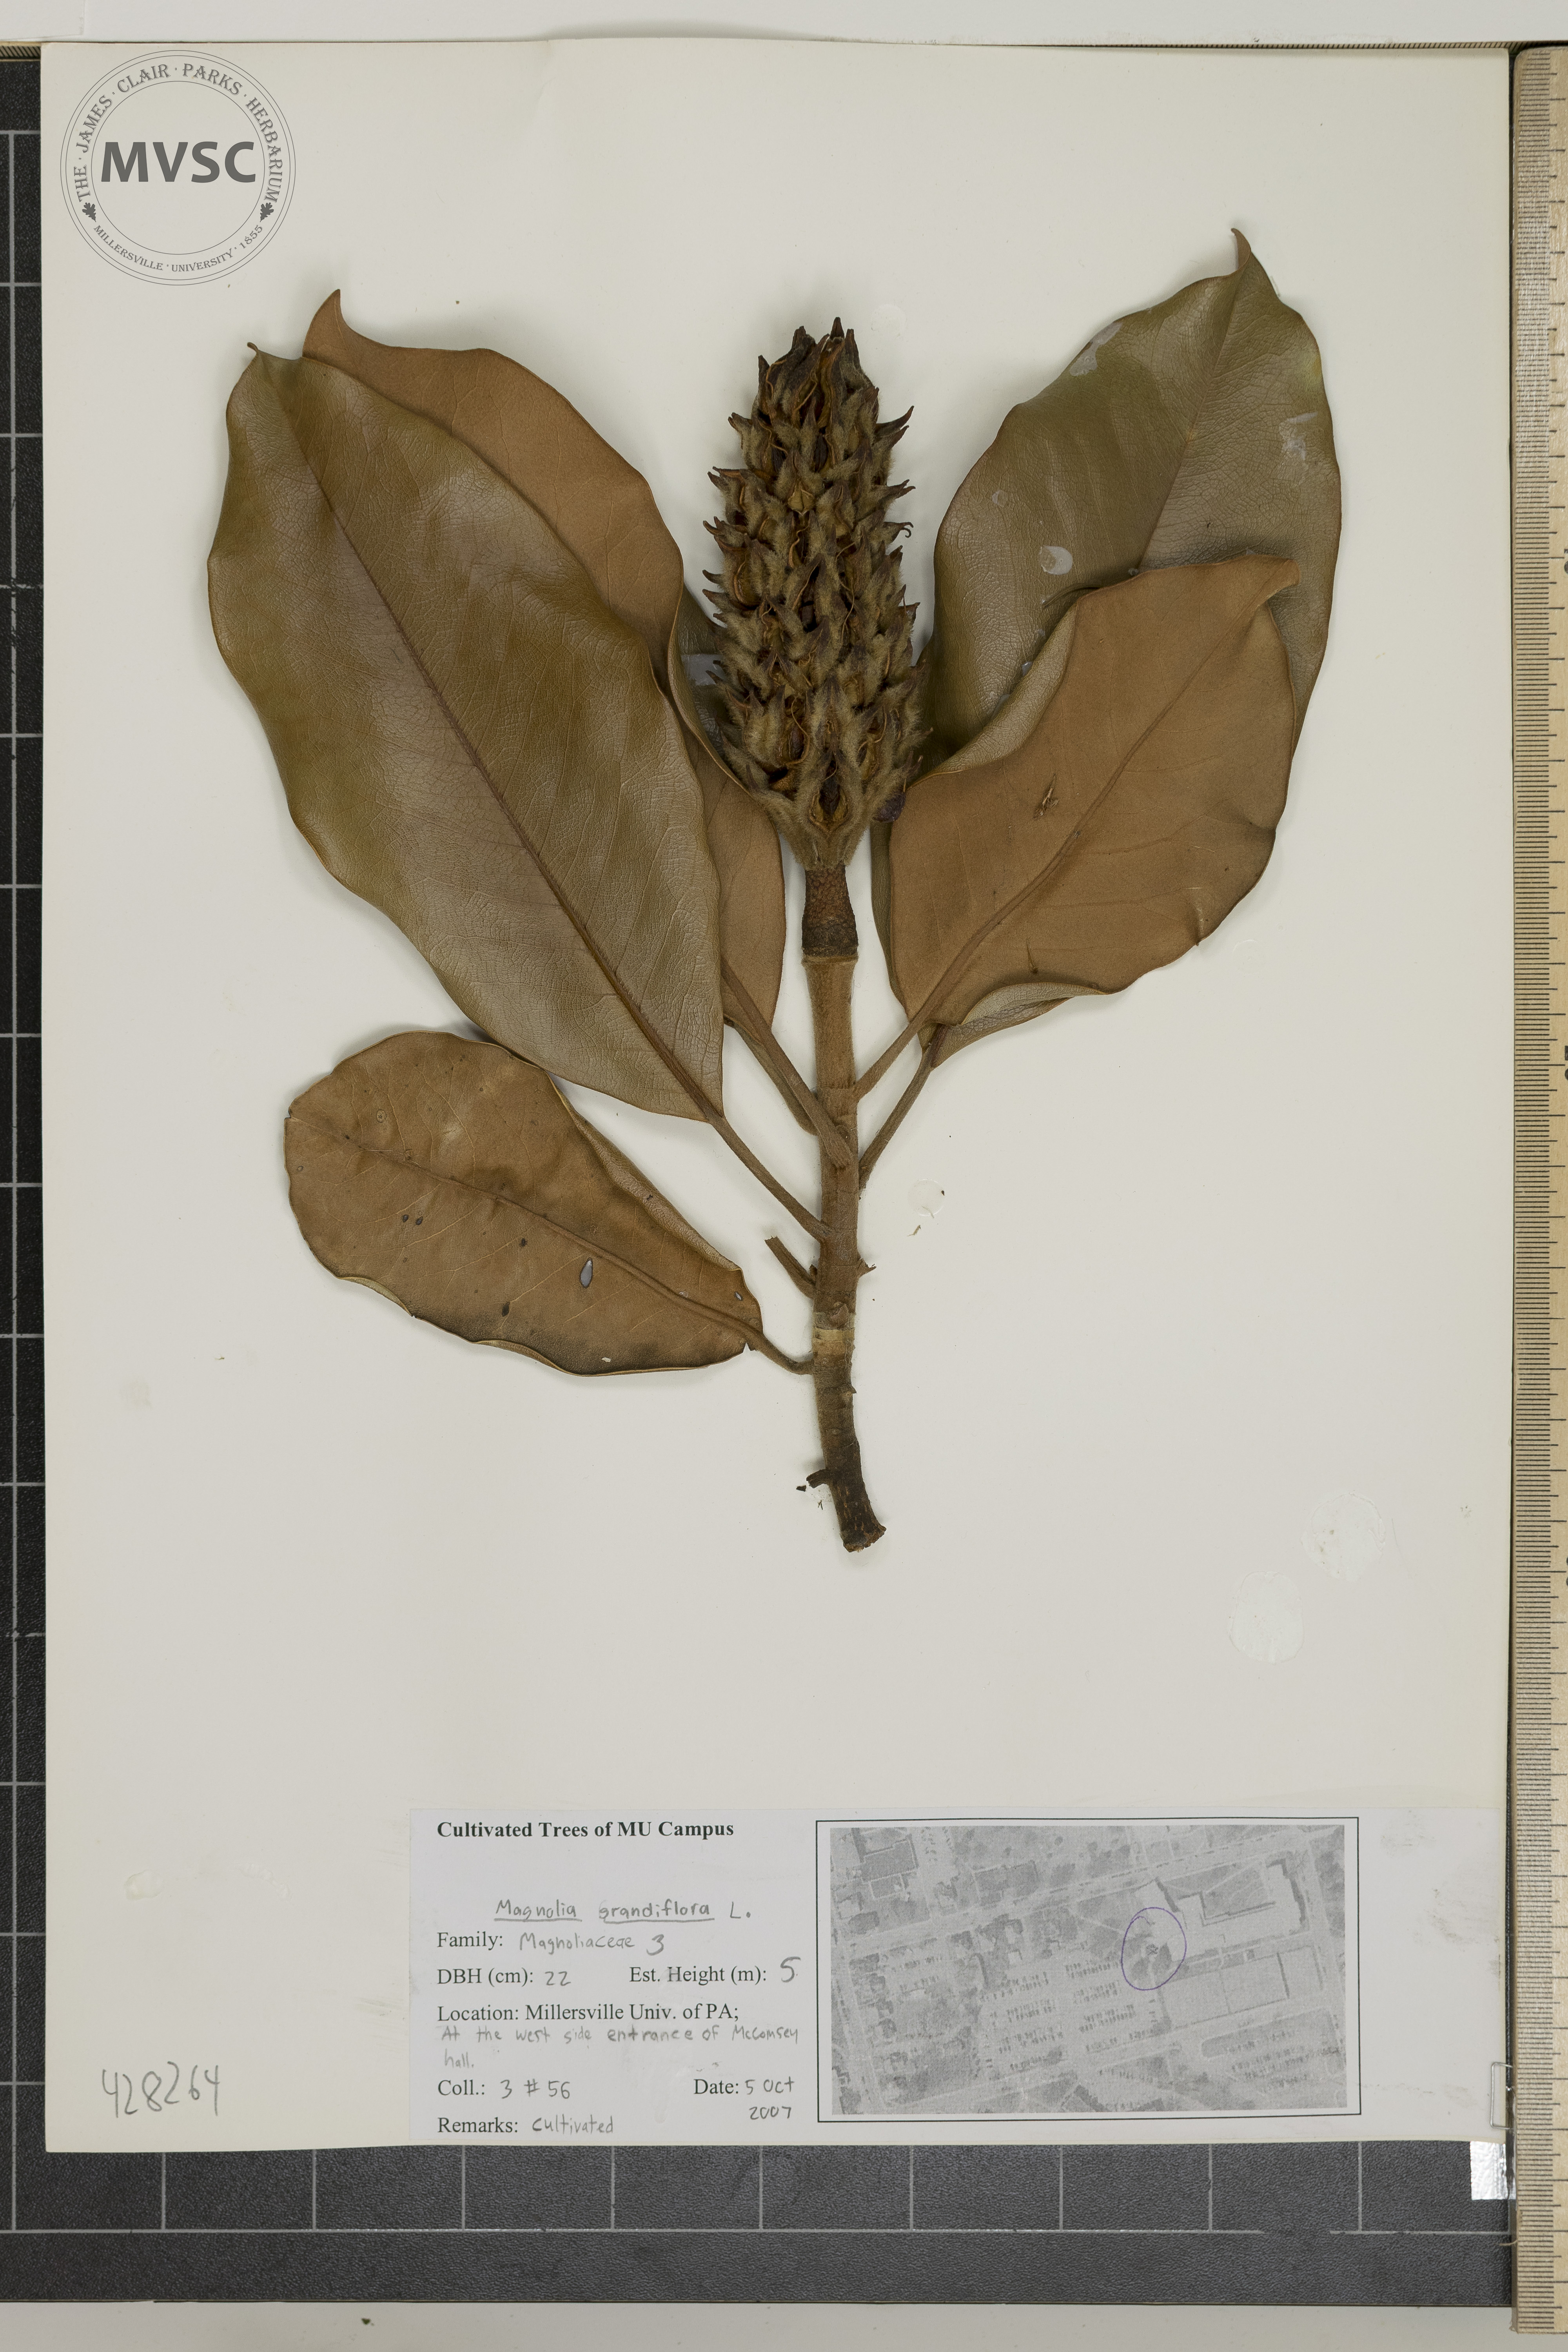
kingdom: Plantae
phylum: Tracheophyta
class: Magnoliopsida
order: Magnoliales
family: Magnoliaceae
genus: Magnolia
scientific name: Magnolia grandiflora
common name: Southern Magnolia
